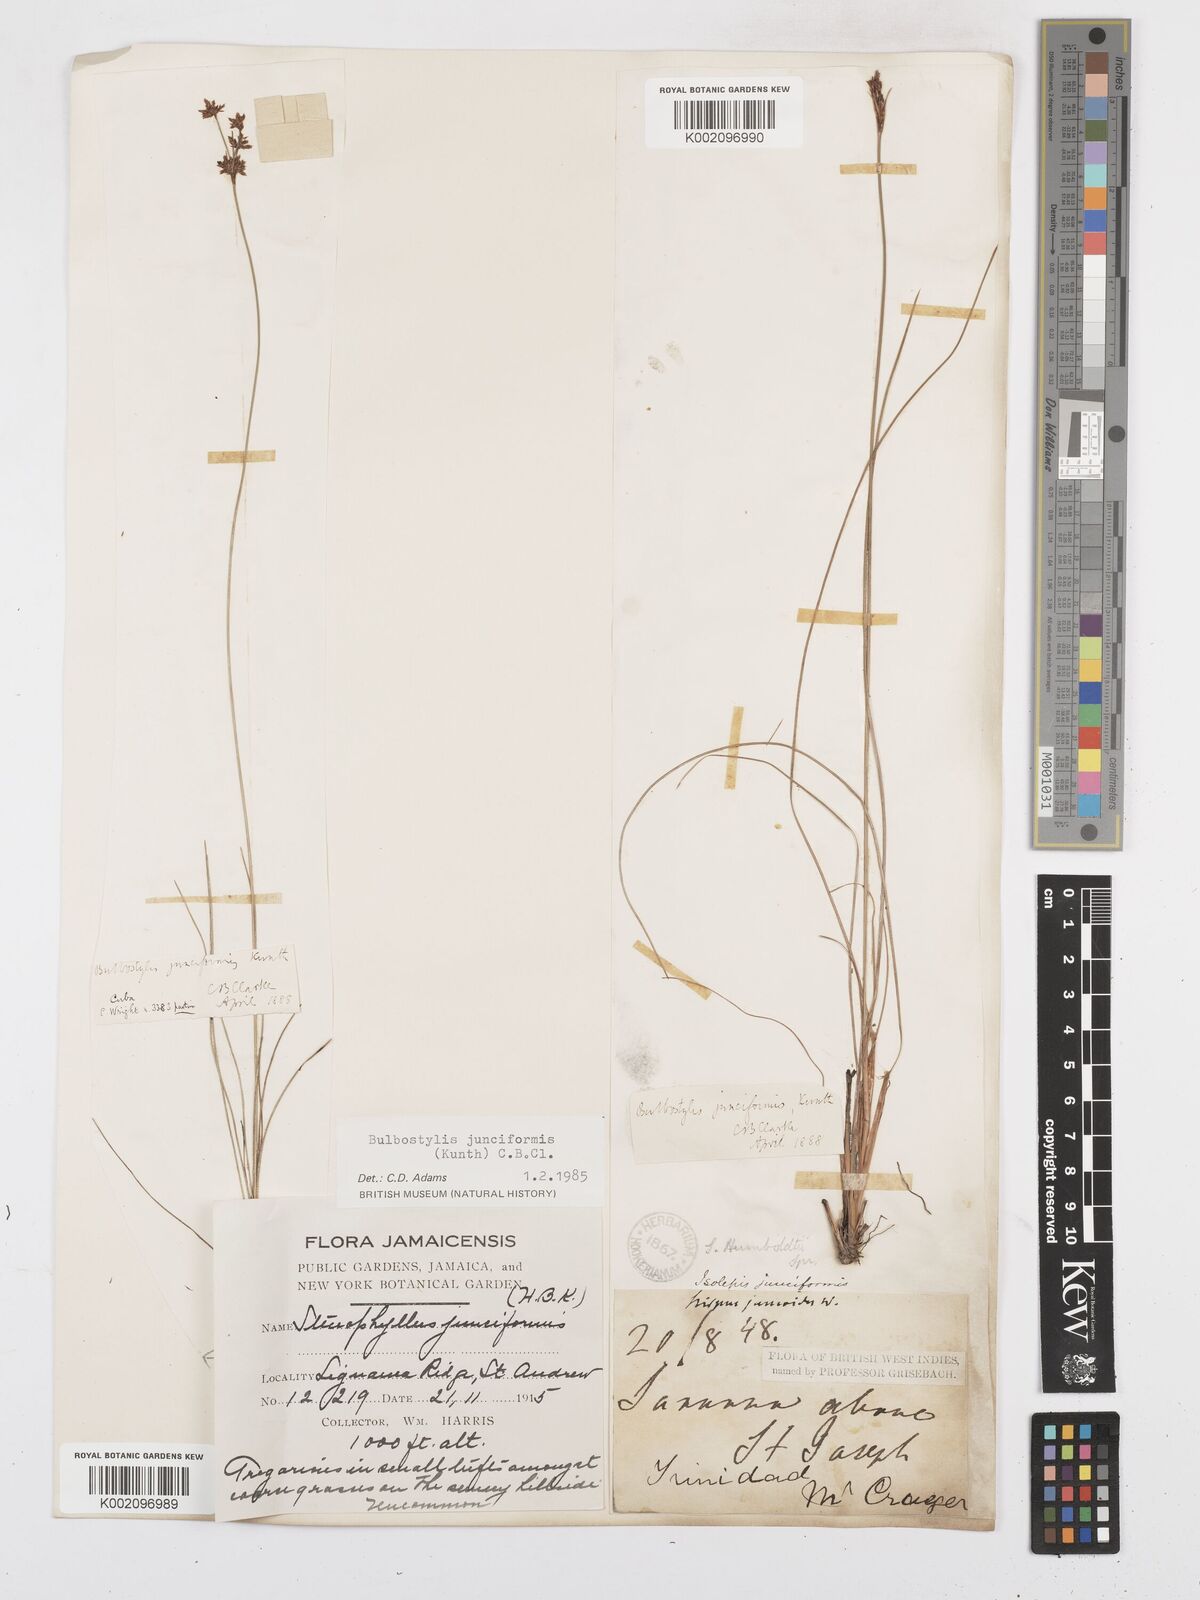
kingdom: Plantae
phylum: Tracheophyta
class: Liliopsida
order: Poales
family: Cyperaceae
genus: Bulbostylis
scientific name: Bulbostylis junciformis
